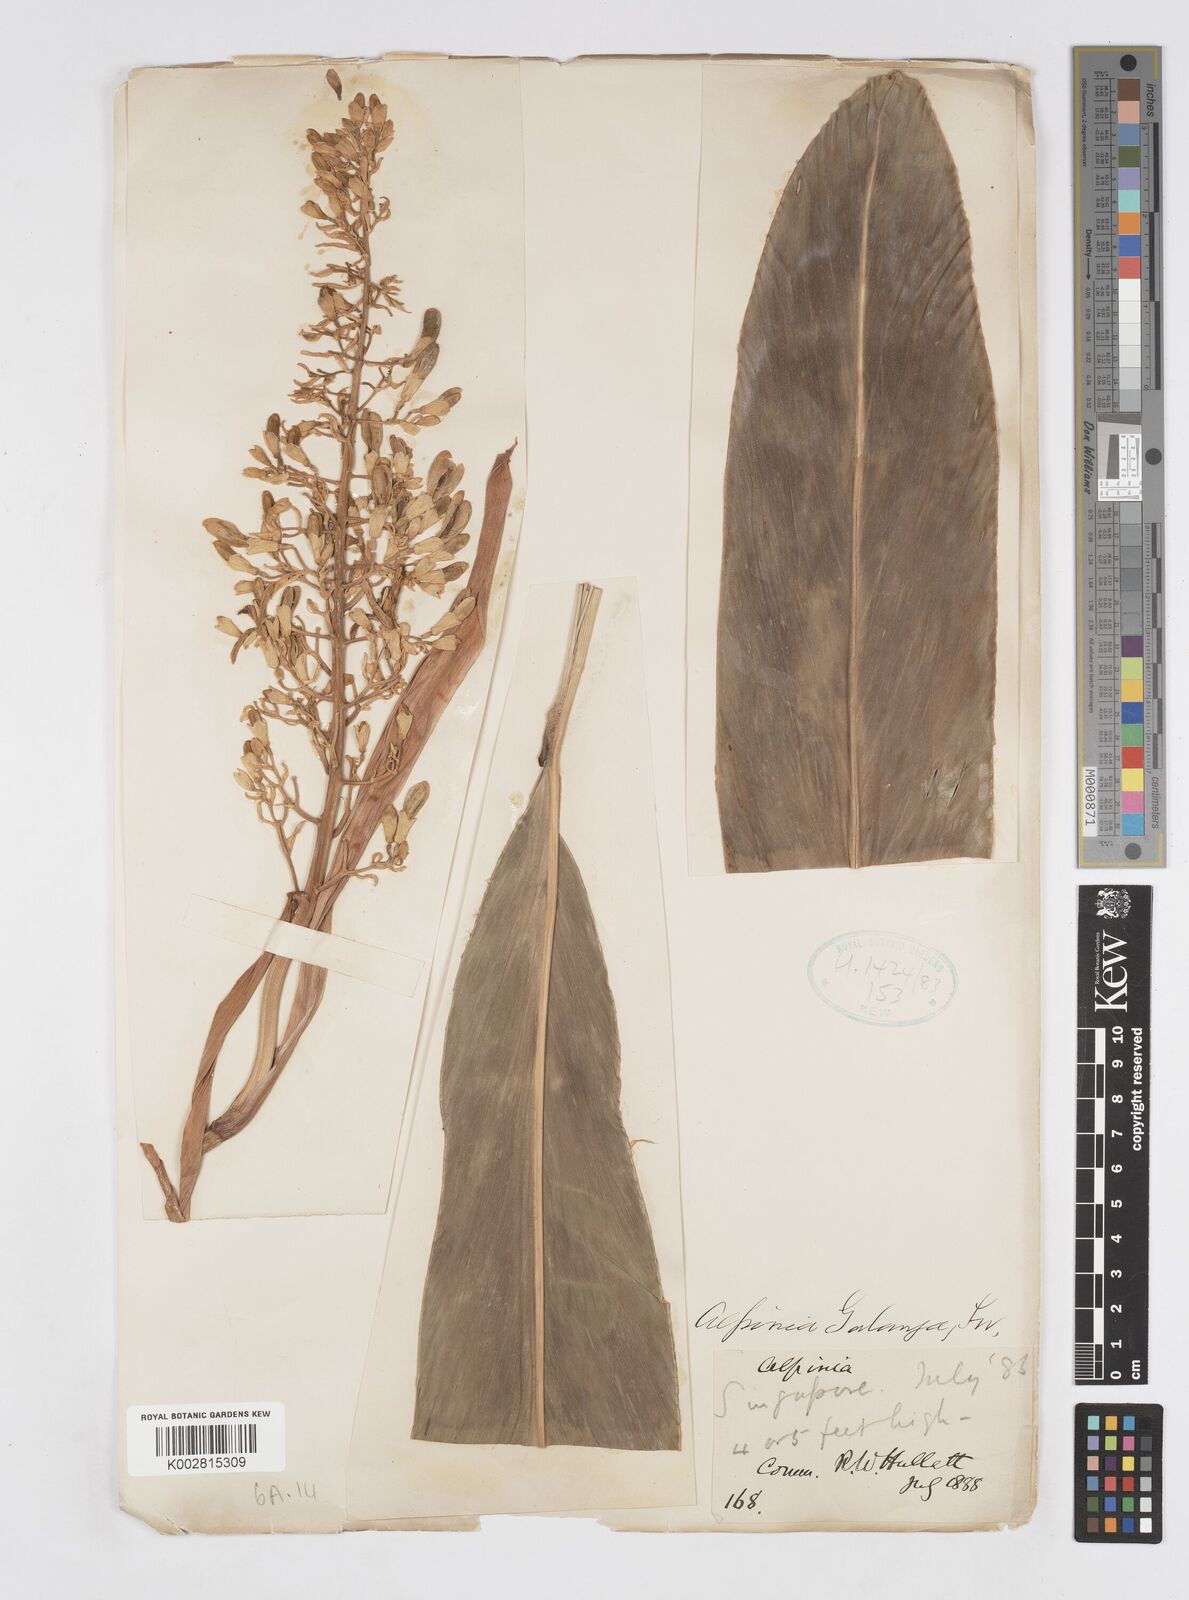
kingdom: Plantae
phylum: Tracheophyta
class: Liliopsida
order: Zingiberales
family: Zingiberaceae
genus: Alpinia
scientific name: Alpinia galanga
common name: Siamese-ginger
